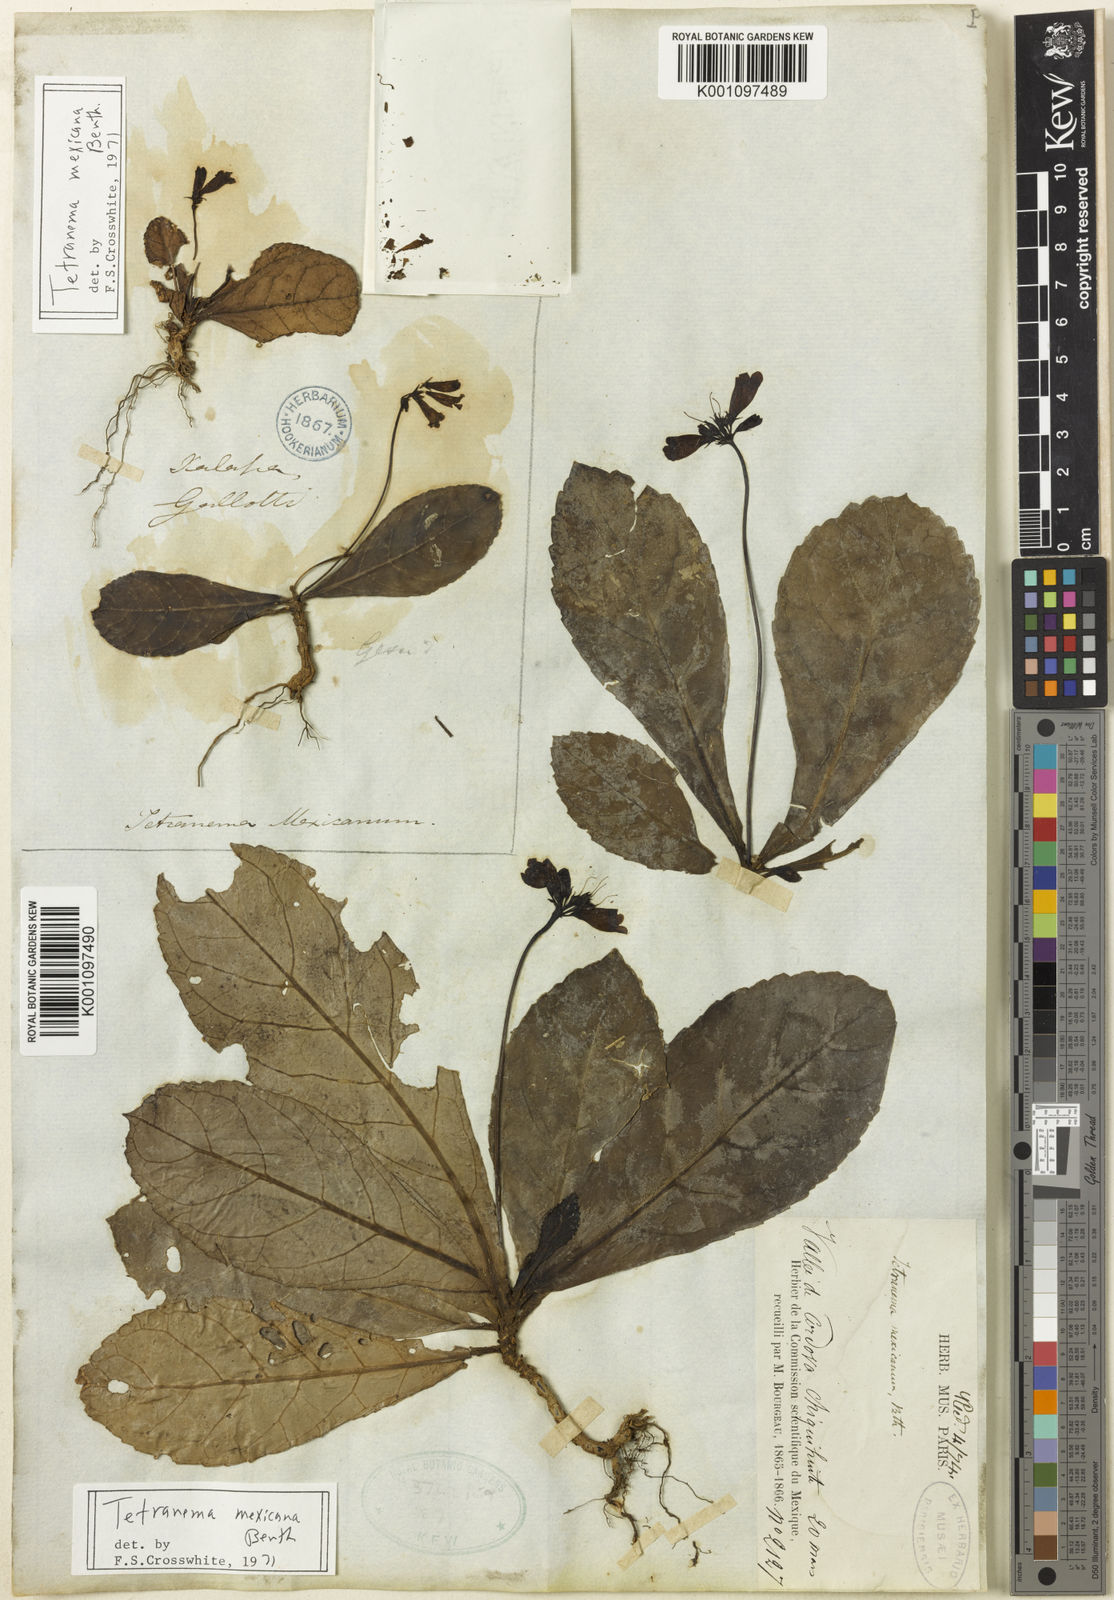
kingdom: Plantae
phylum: Tracheophyta
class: Magnoliopsida
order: Lamiales
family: Plantaginaceae
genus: Tetranema
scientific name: Tetranema roseum
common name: Mexican-violet
